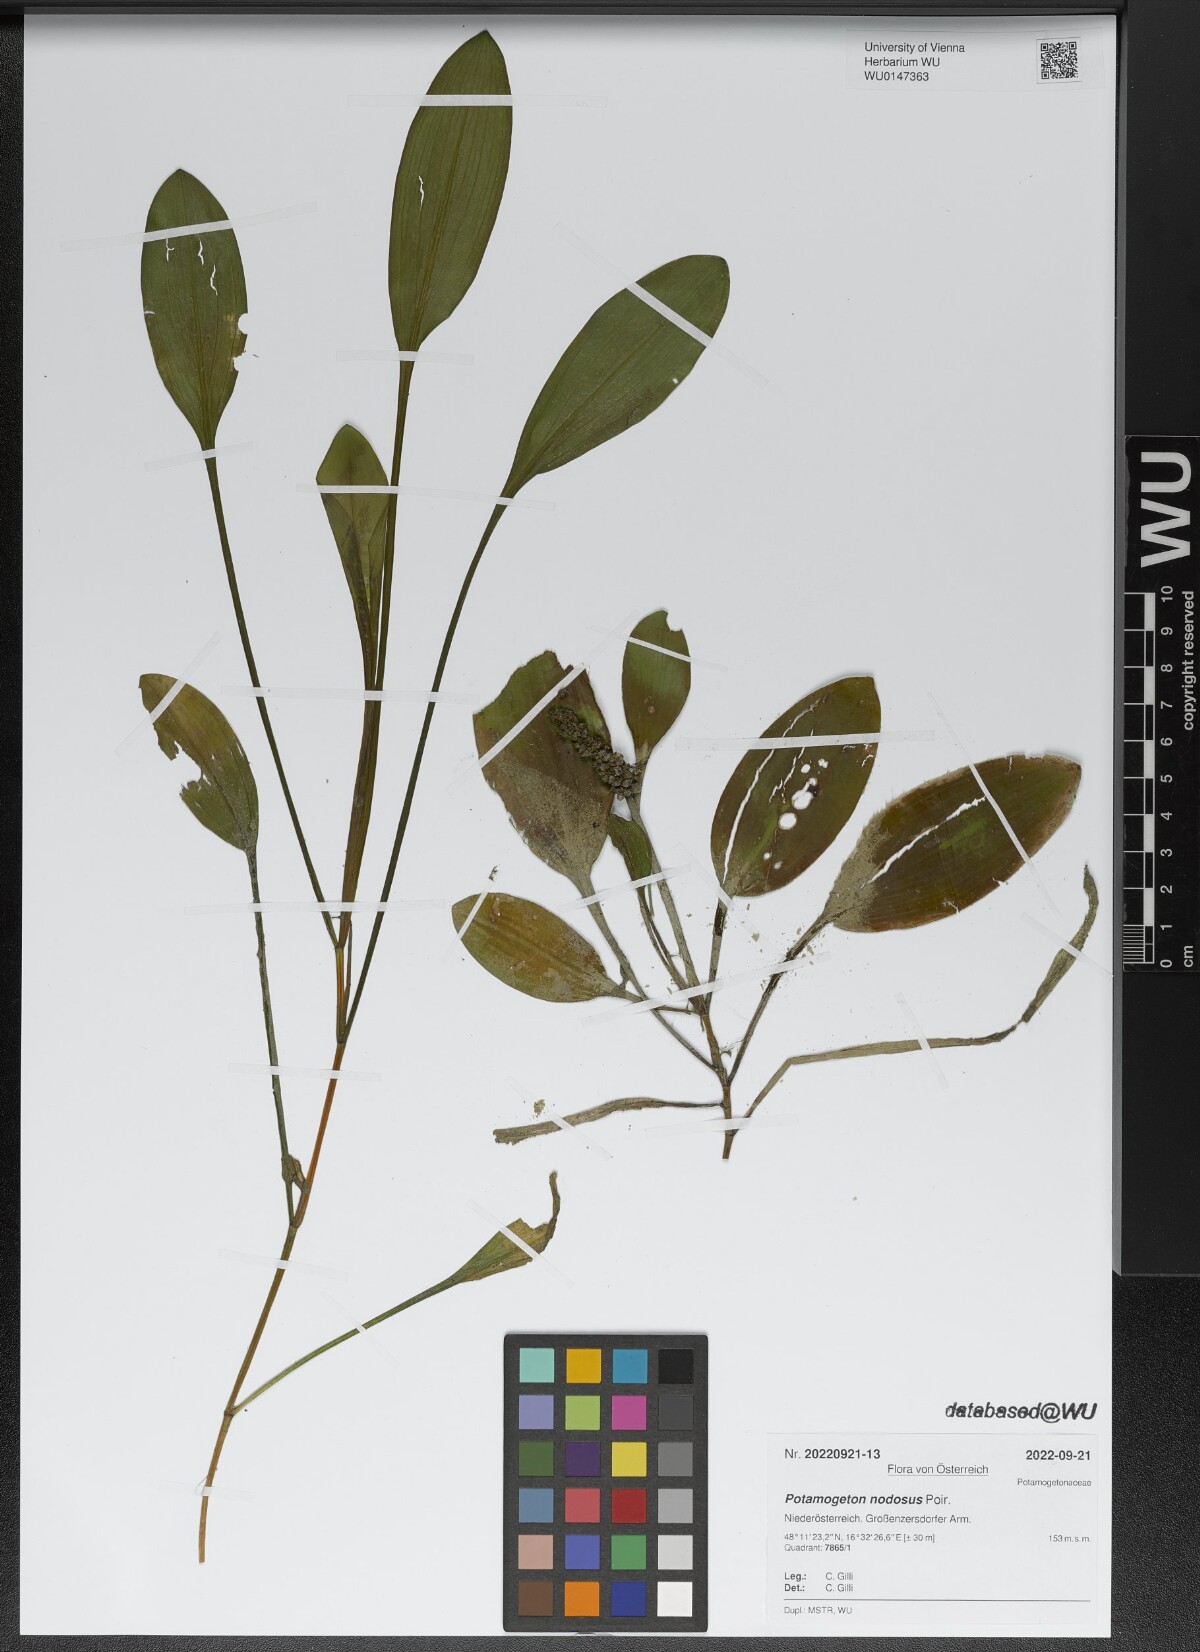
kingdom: Plantae
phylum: Tracheophyta
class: Liliopsida
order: Alismatales
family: Potamogetonaceae
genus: Potamogeton
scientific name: Potamogeton nodosus
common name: Loddon pondweed
